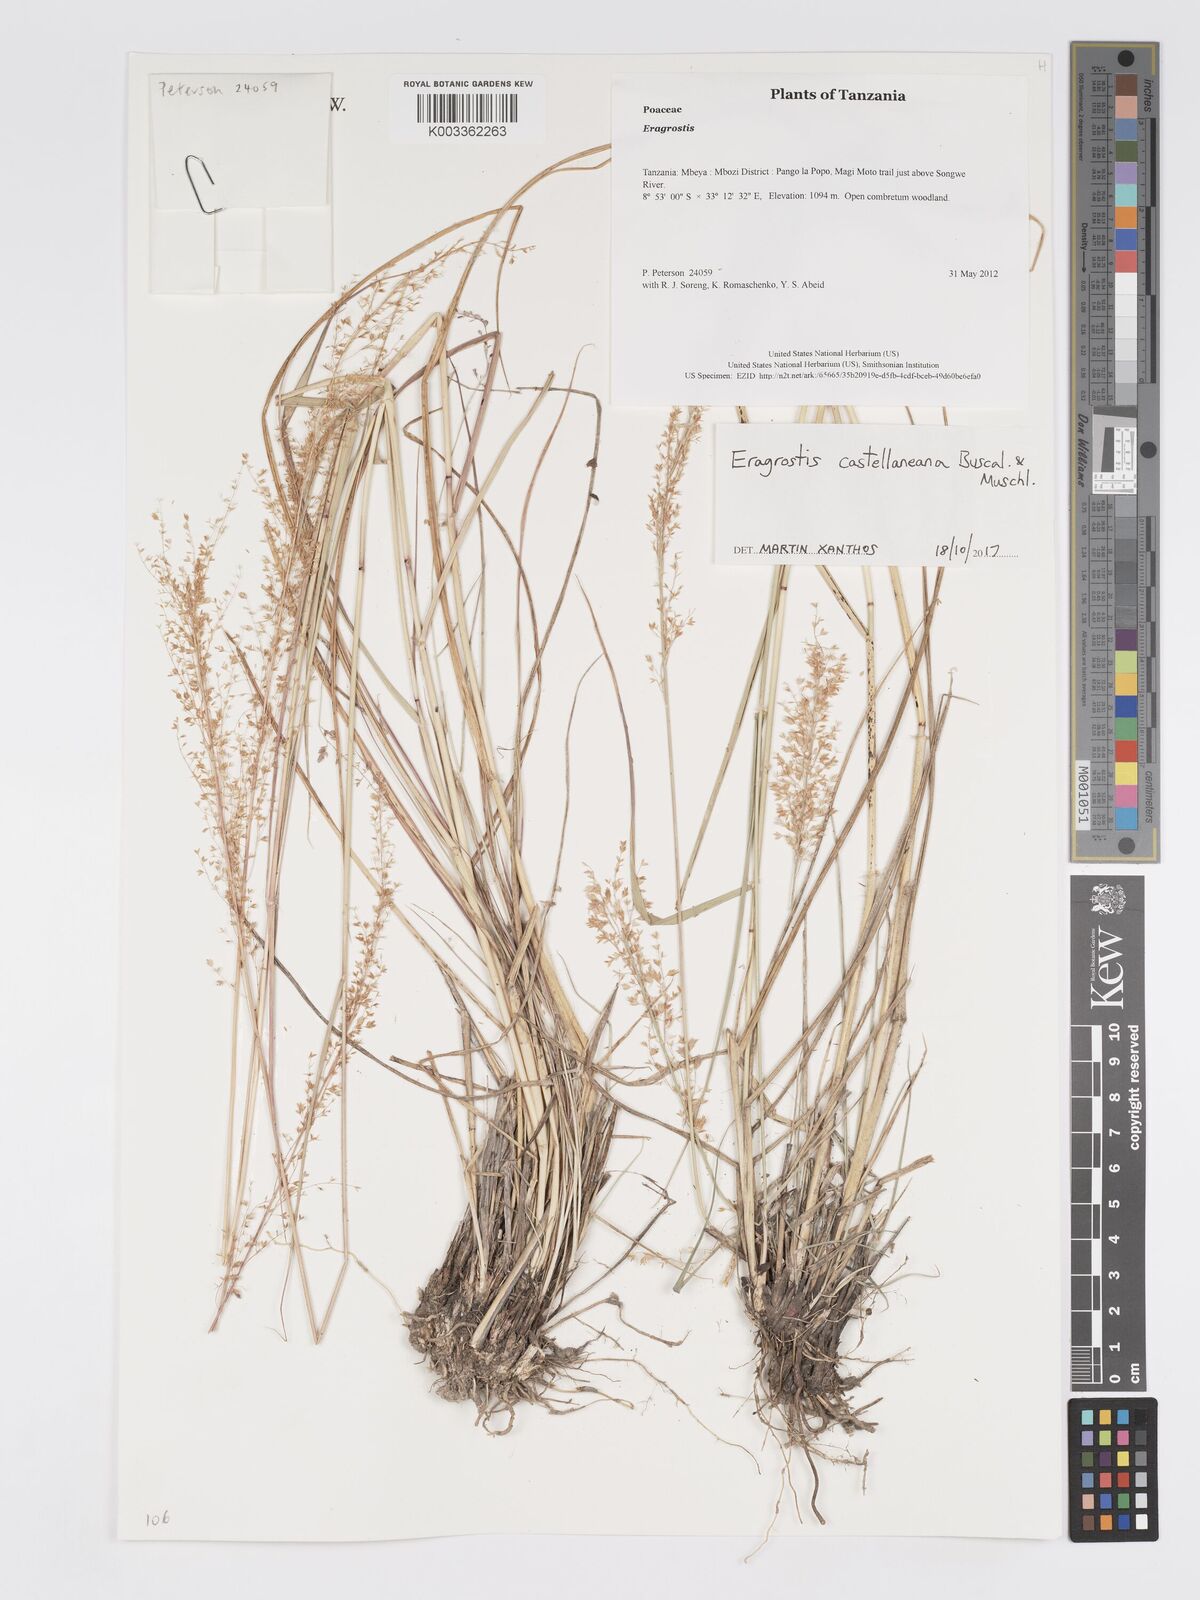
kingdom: Plantae
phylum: Tracheophyta
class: Liliopsida
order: Poales
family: Poaceae
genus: Eragrostis
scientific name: Eragrostis castellaneana
